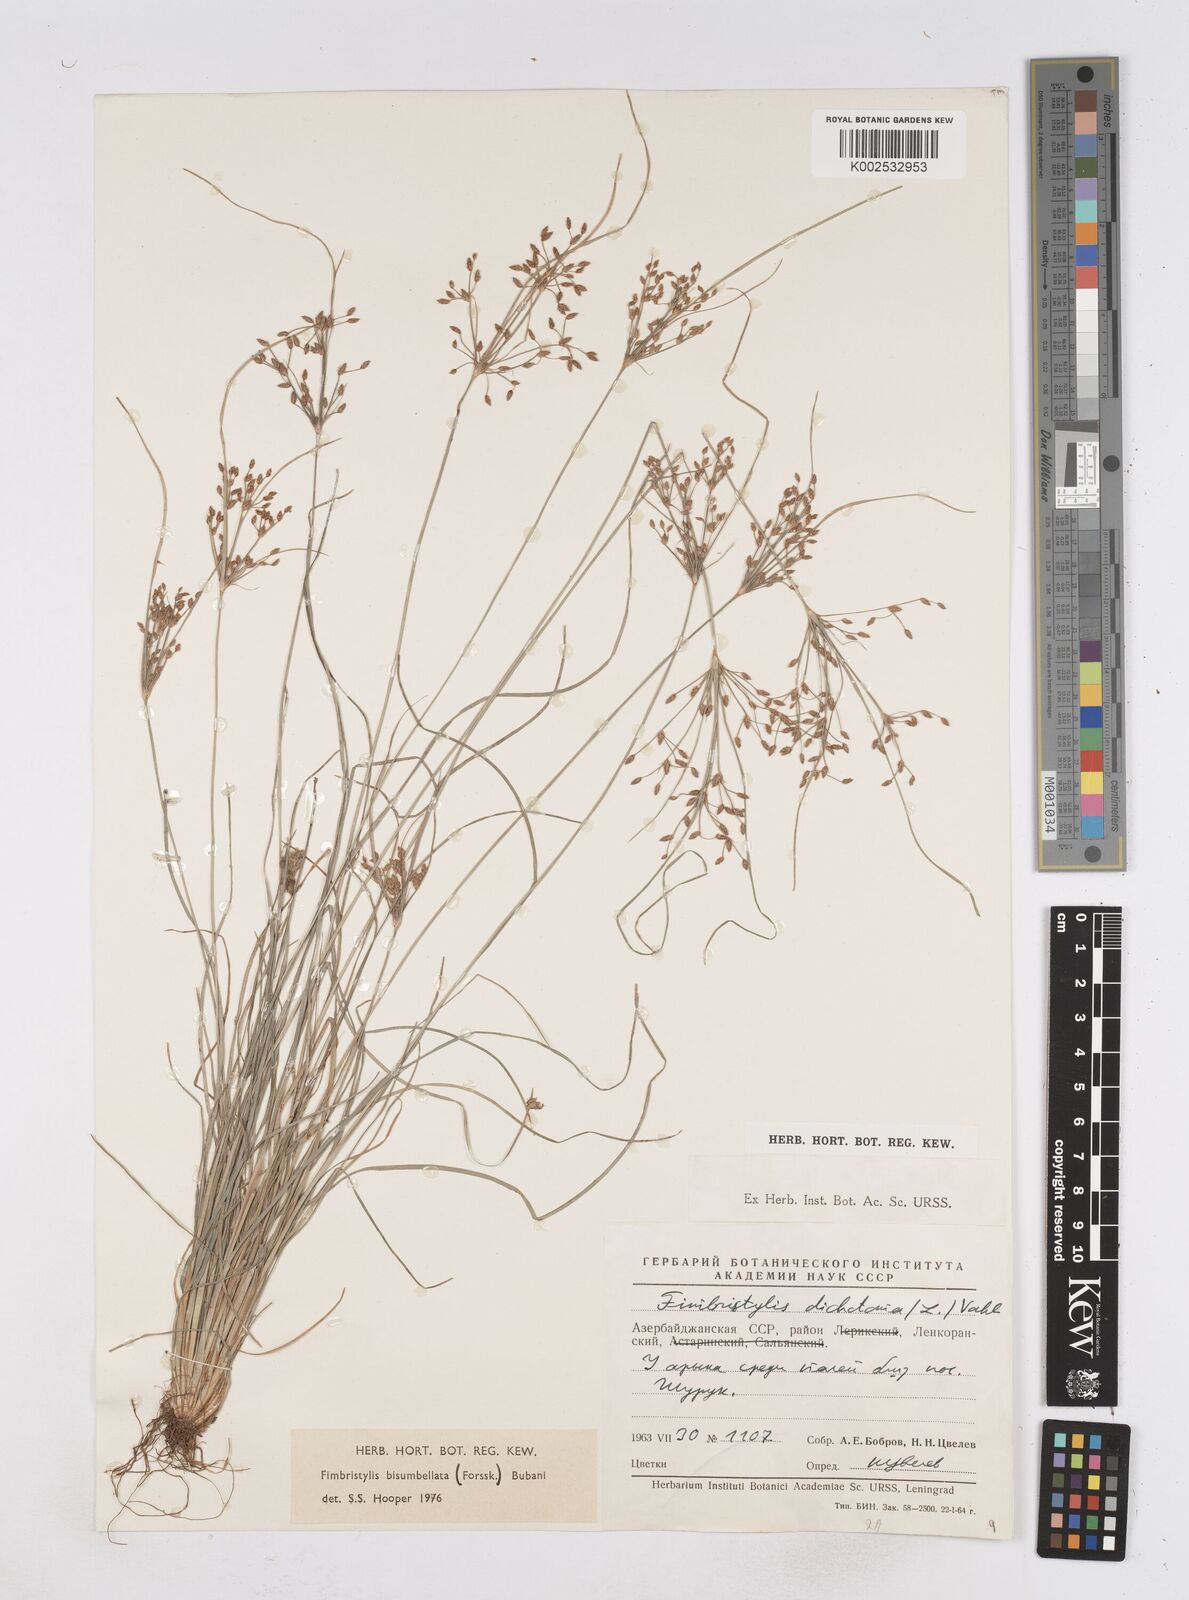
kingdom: Plantae
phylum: Tracheophyta
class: Liliopsida
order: Poales
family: Cyperaceae
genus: Fimbristylis
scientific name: Fimbristylis bisumbellata
